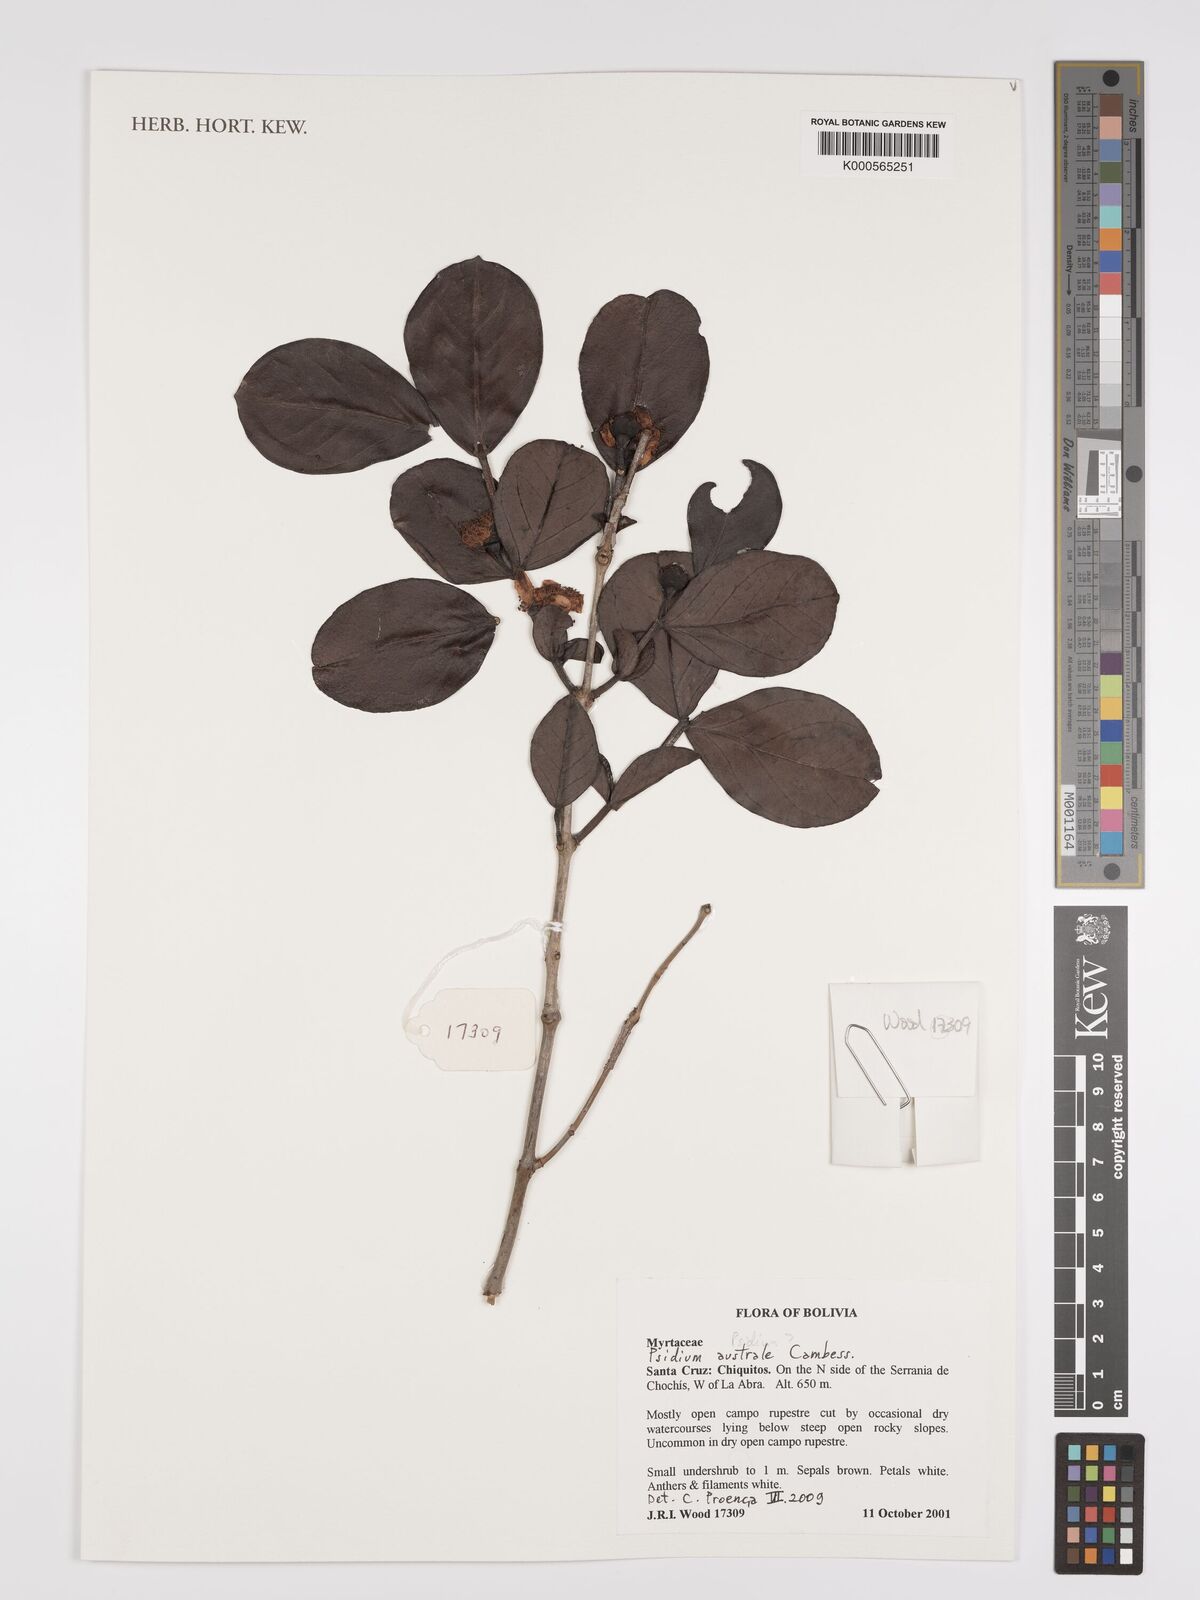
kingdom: Plantae
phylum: Tracheophyta
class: Magnoliopsida
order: Myrtales
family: Myrtaceae
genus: Psidium
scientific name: Psidium australe
